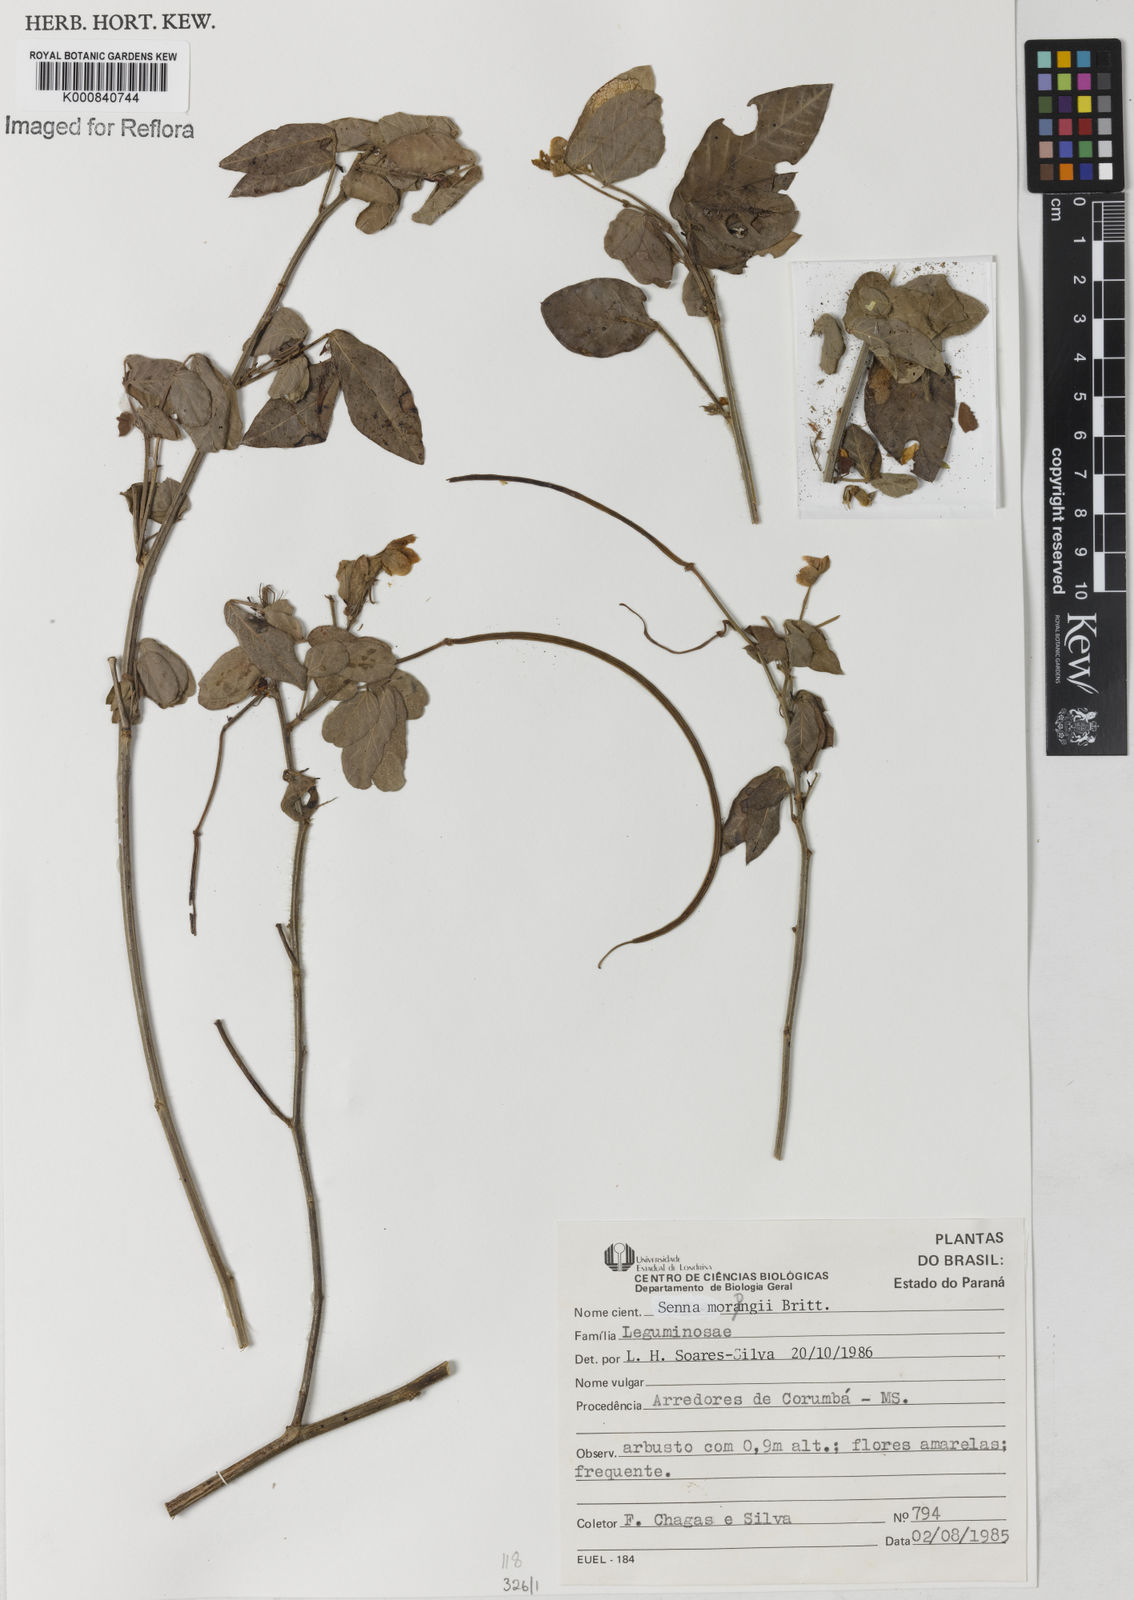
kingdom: Plantae
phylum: Tracheophyta
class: Magnoliopsida
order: Fabales
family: Fabaceae
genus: Senna
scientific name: Senna morongii
